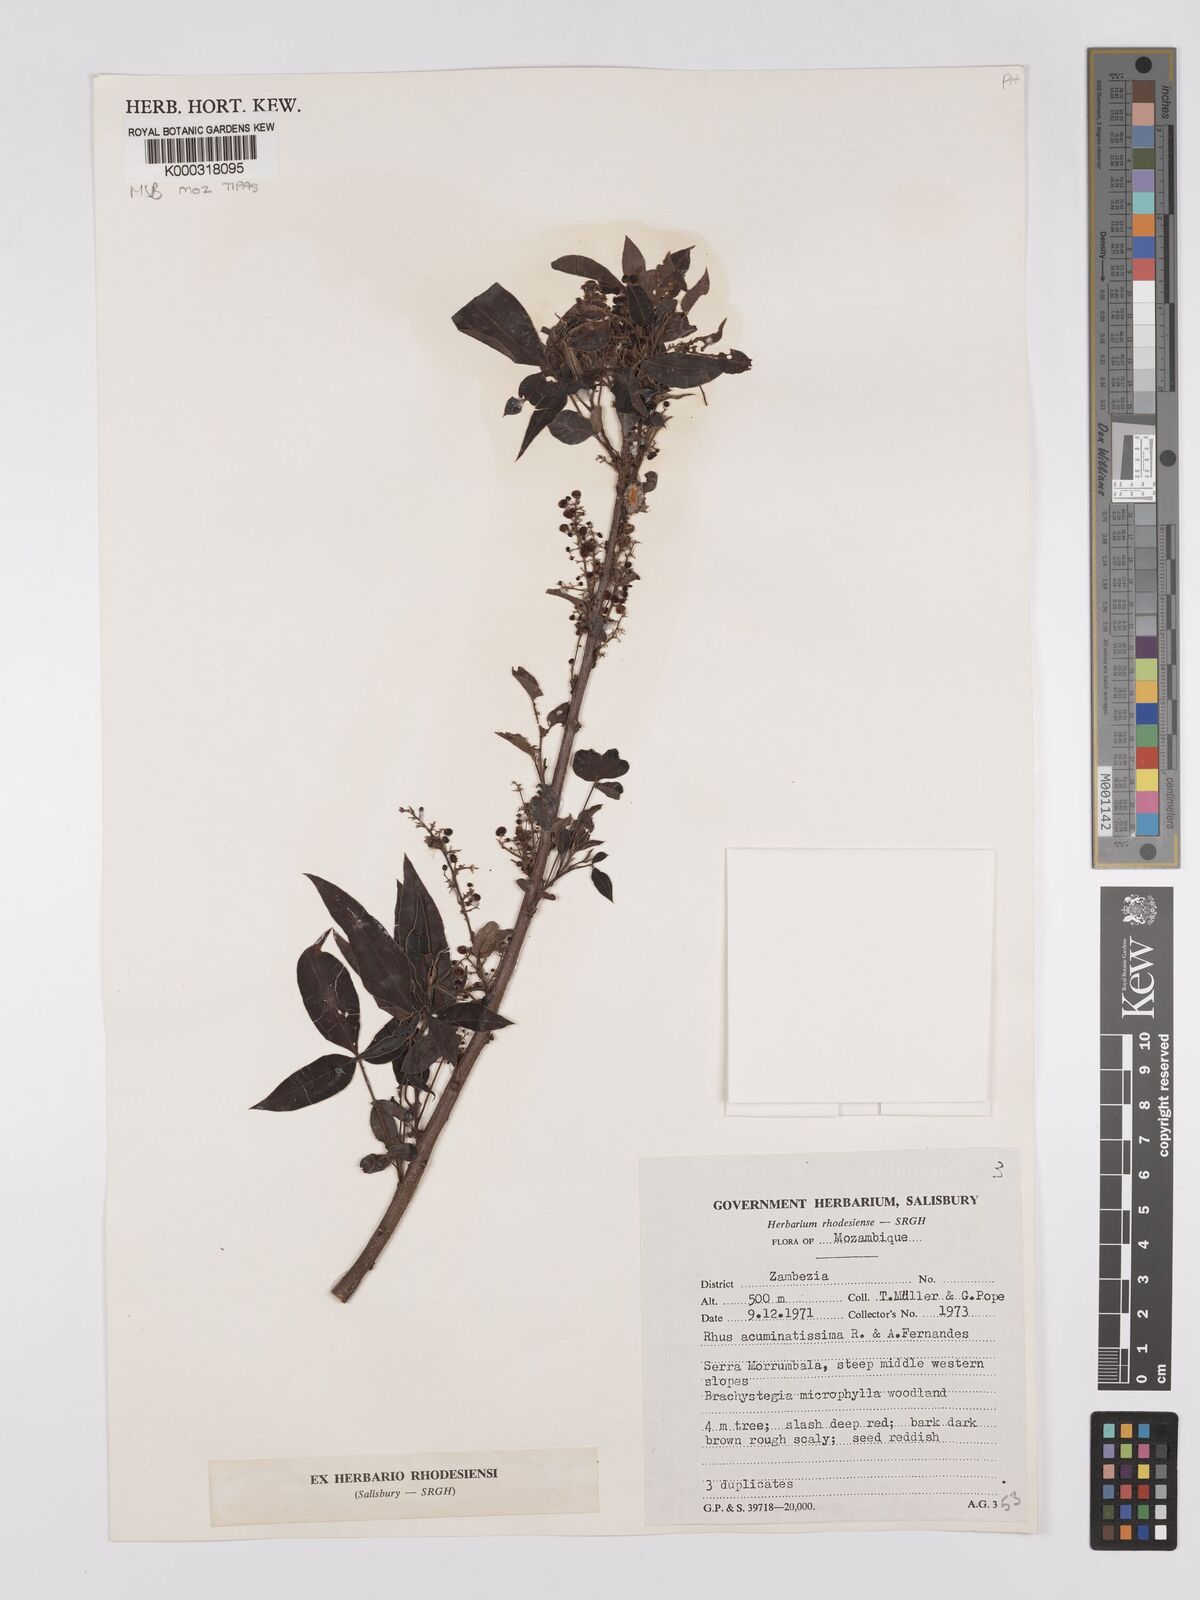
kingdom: Plantae
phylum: Tracheophyta
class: Magnoliopsida
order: Sapindales
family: Anacardiaceae
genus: Searsia
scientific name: Searsia acuminatissima
